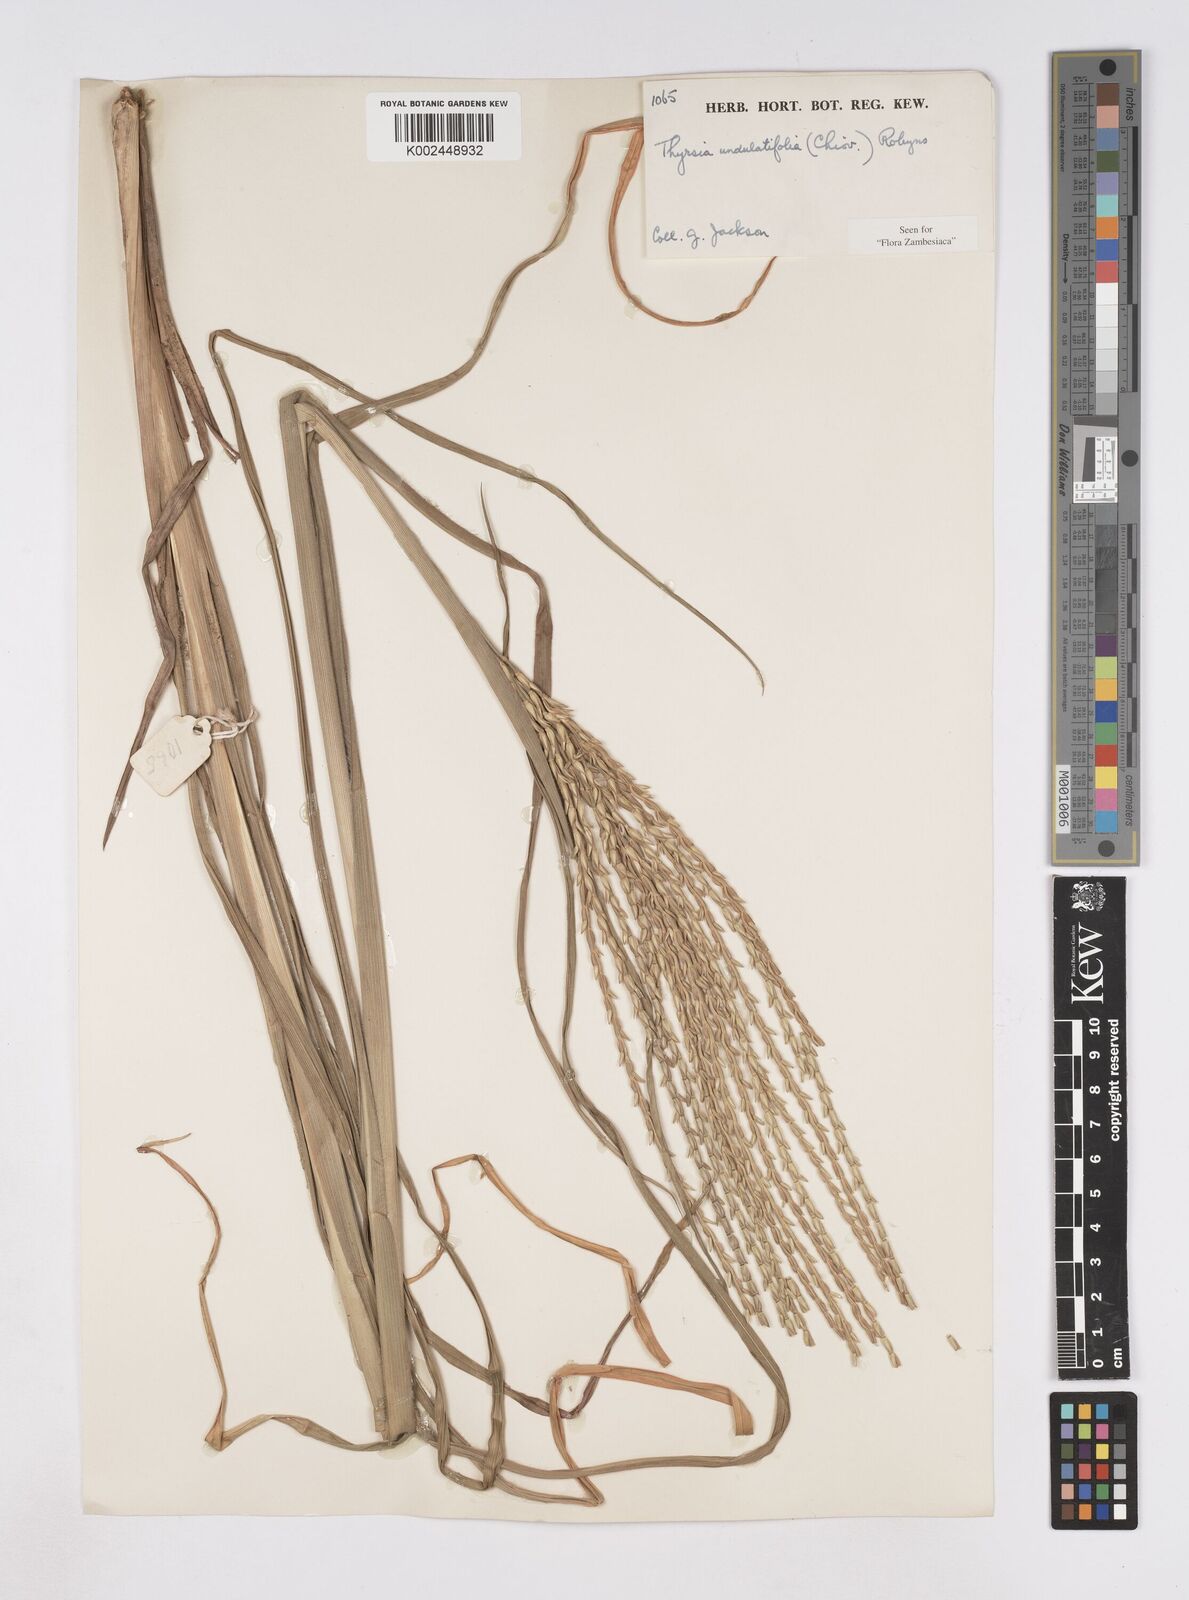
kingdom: Plantae
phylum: Tracheophyta
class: Liliopsida
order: Poales
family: Poaceae
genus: Thyrsia
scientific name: Thyrsia huillensis
